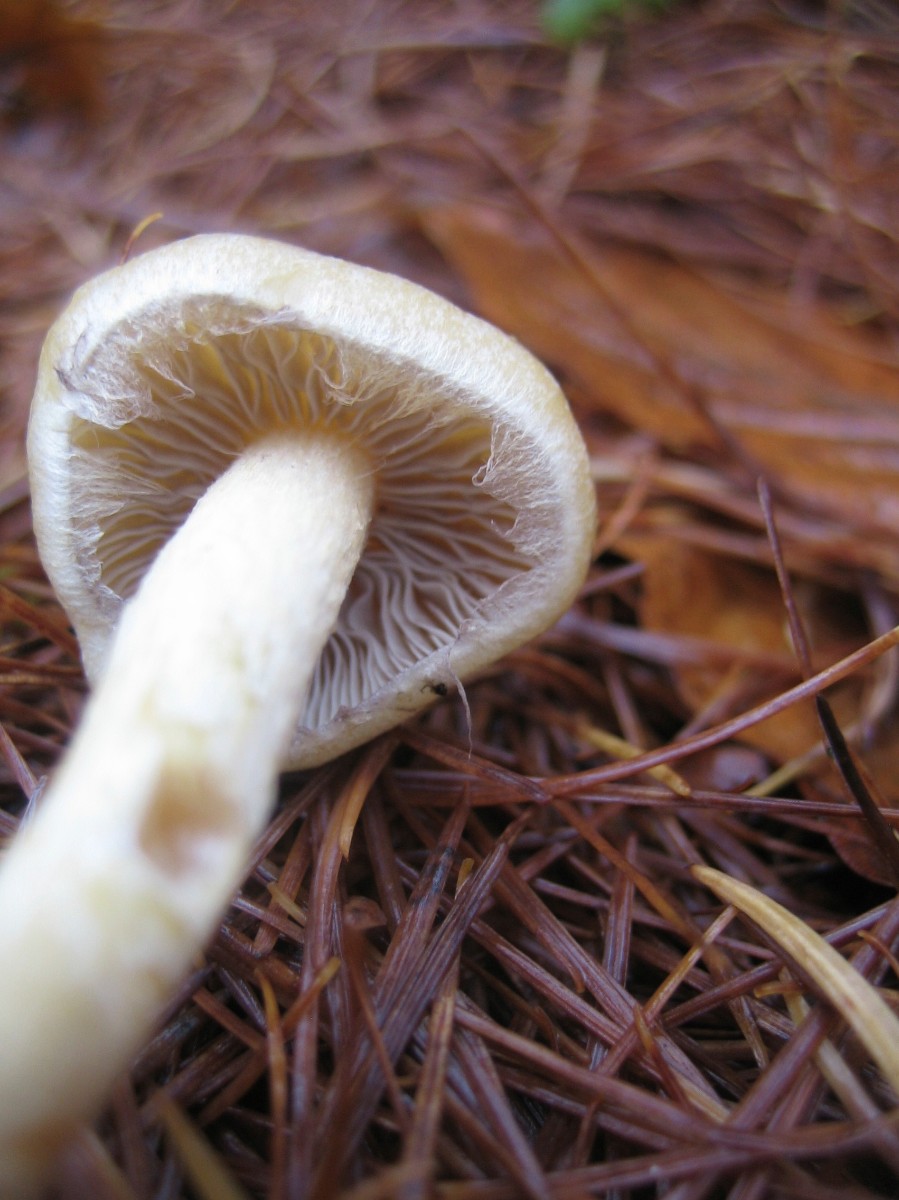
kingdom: Fungi
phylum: Basidiomycota
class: Agaricomycetes
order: Agaricales
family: Strophariaceae
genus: Hypholoma
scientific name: Hypholoma fasciculare
